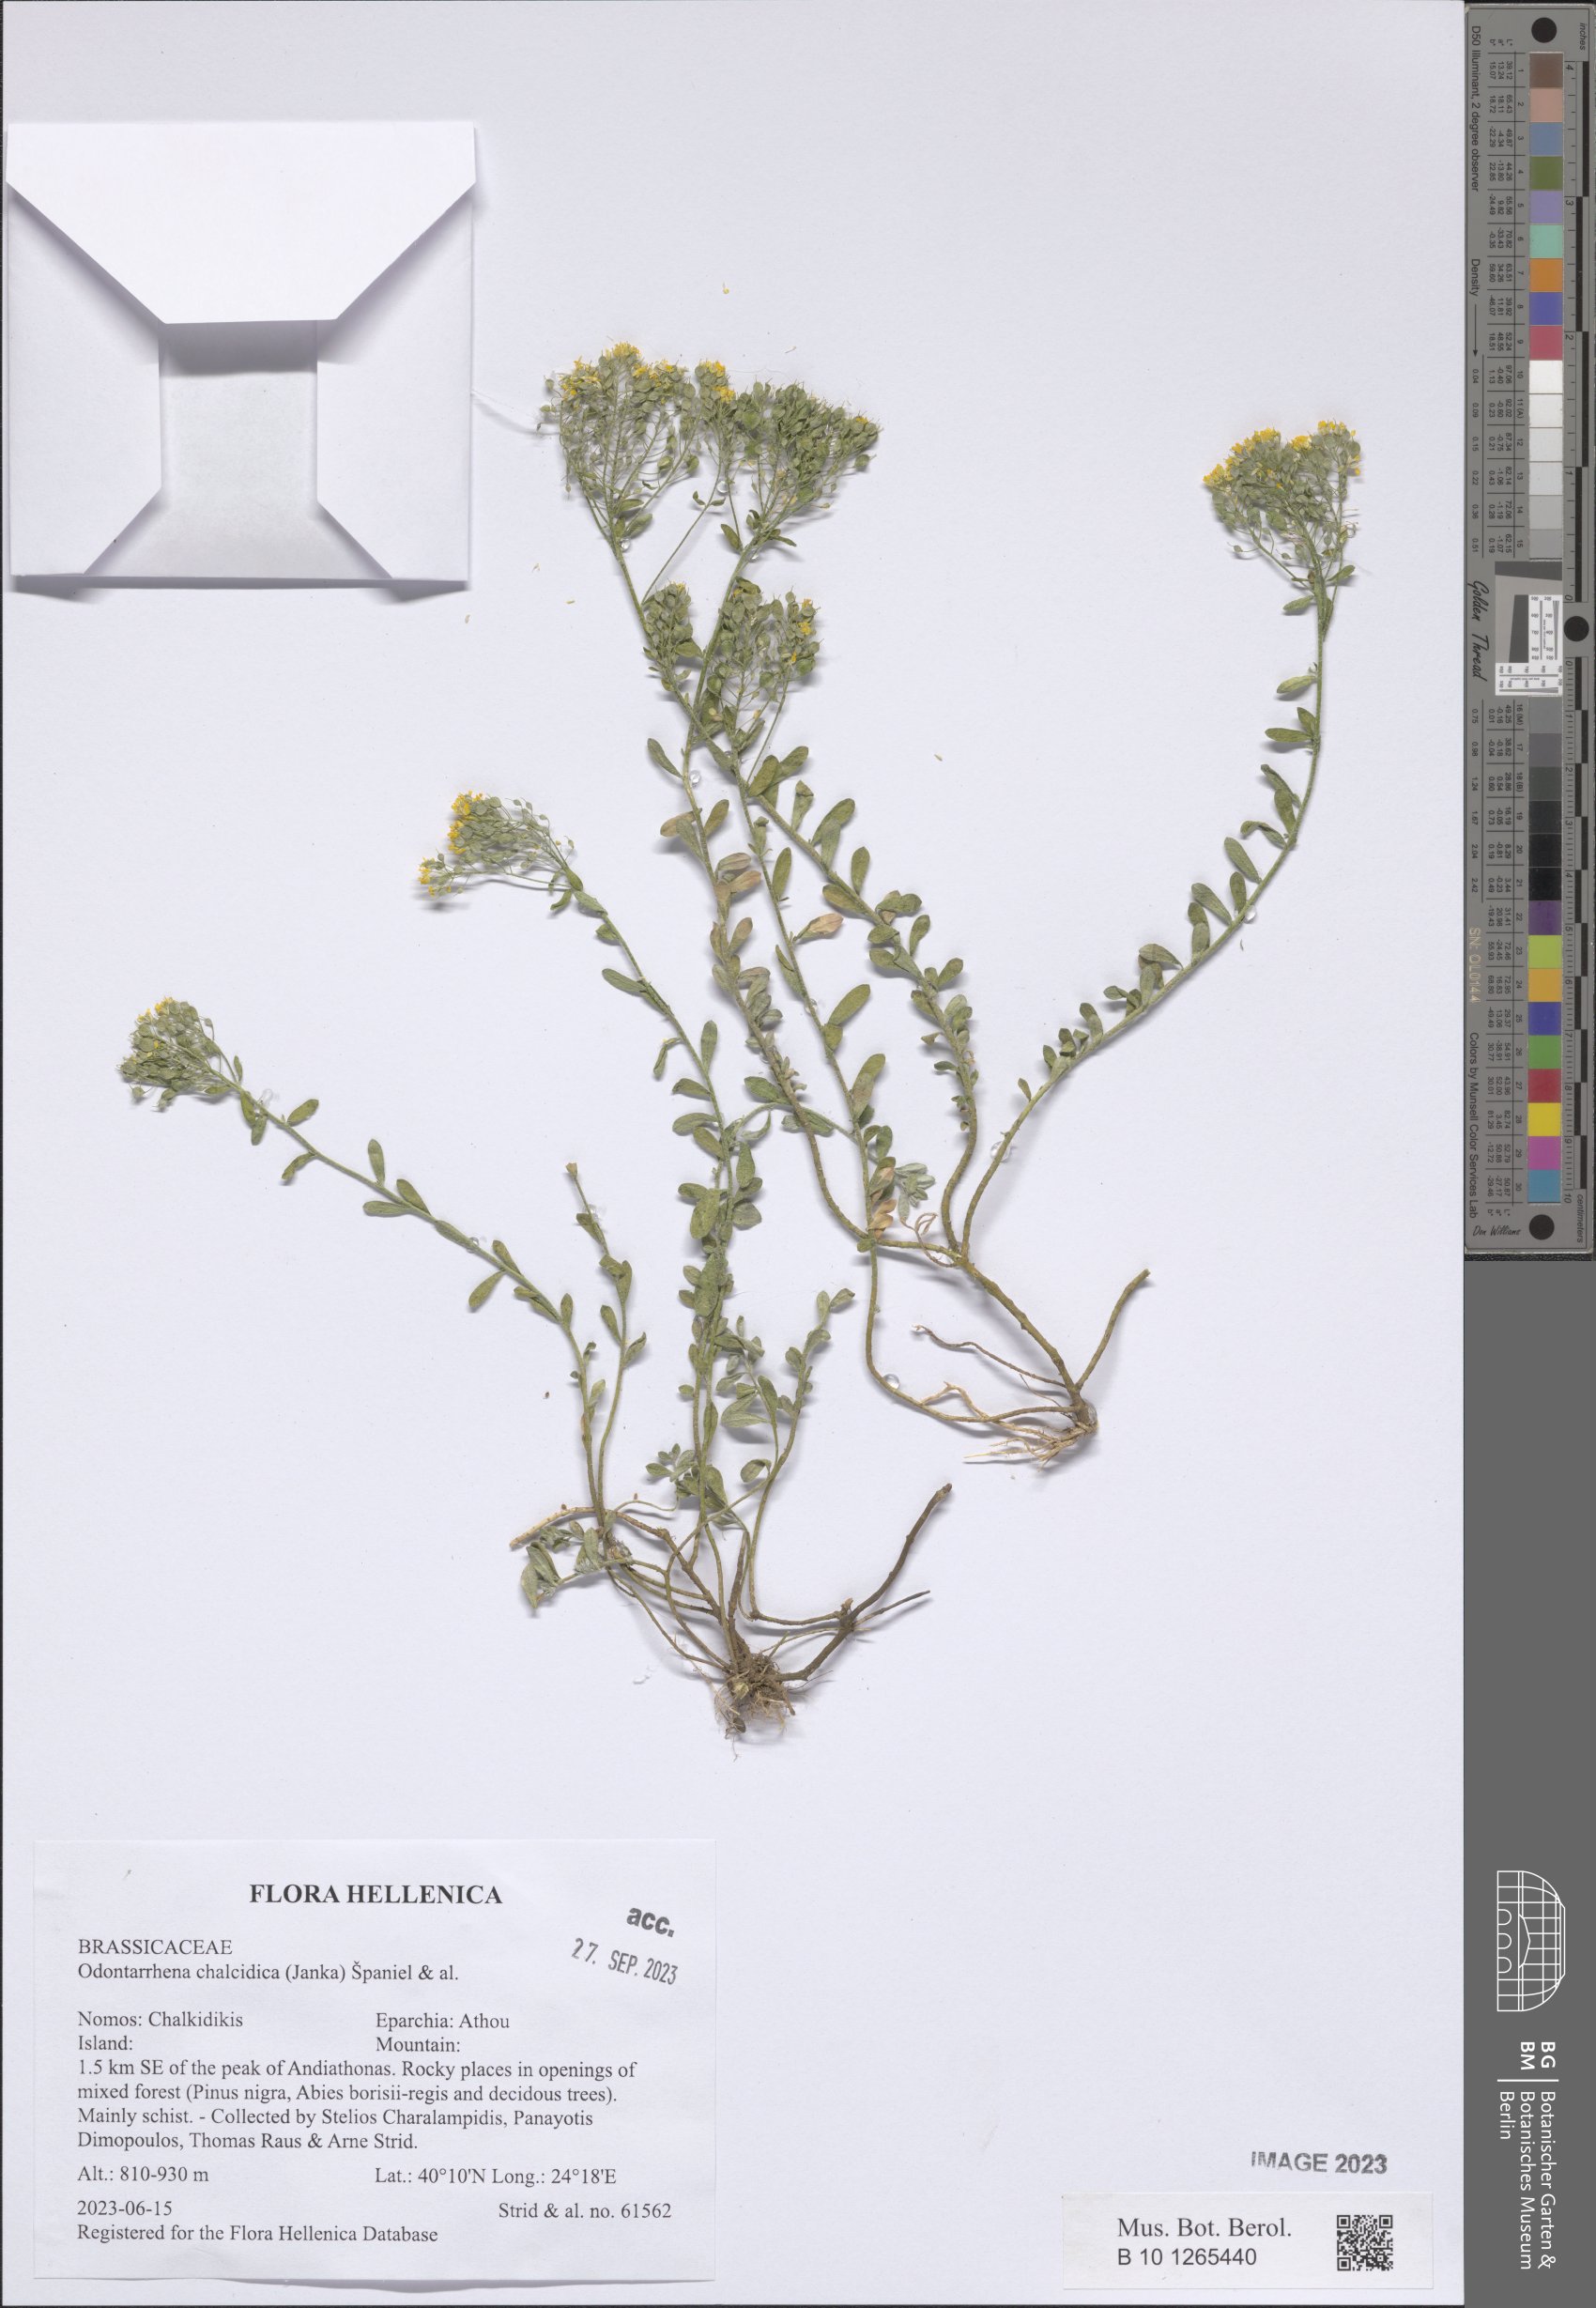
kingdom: Plantae
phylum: Tracheophyta
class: Magnoliopsida
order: Brassicales
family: Brassicaceae
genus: Odontarrhena
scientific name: Odontarrhena chalcidica
